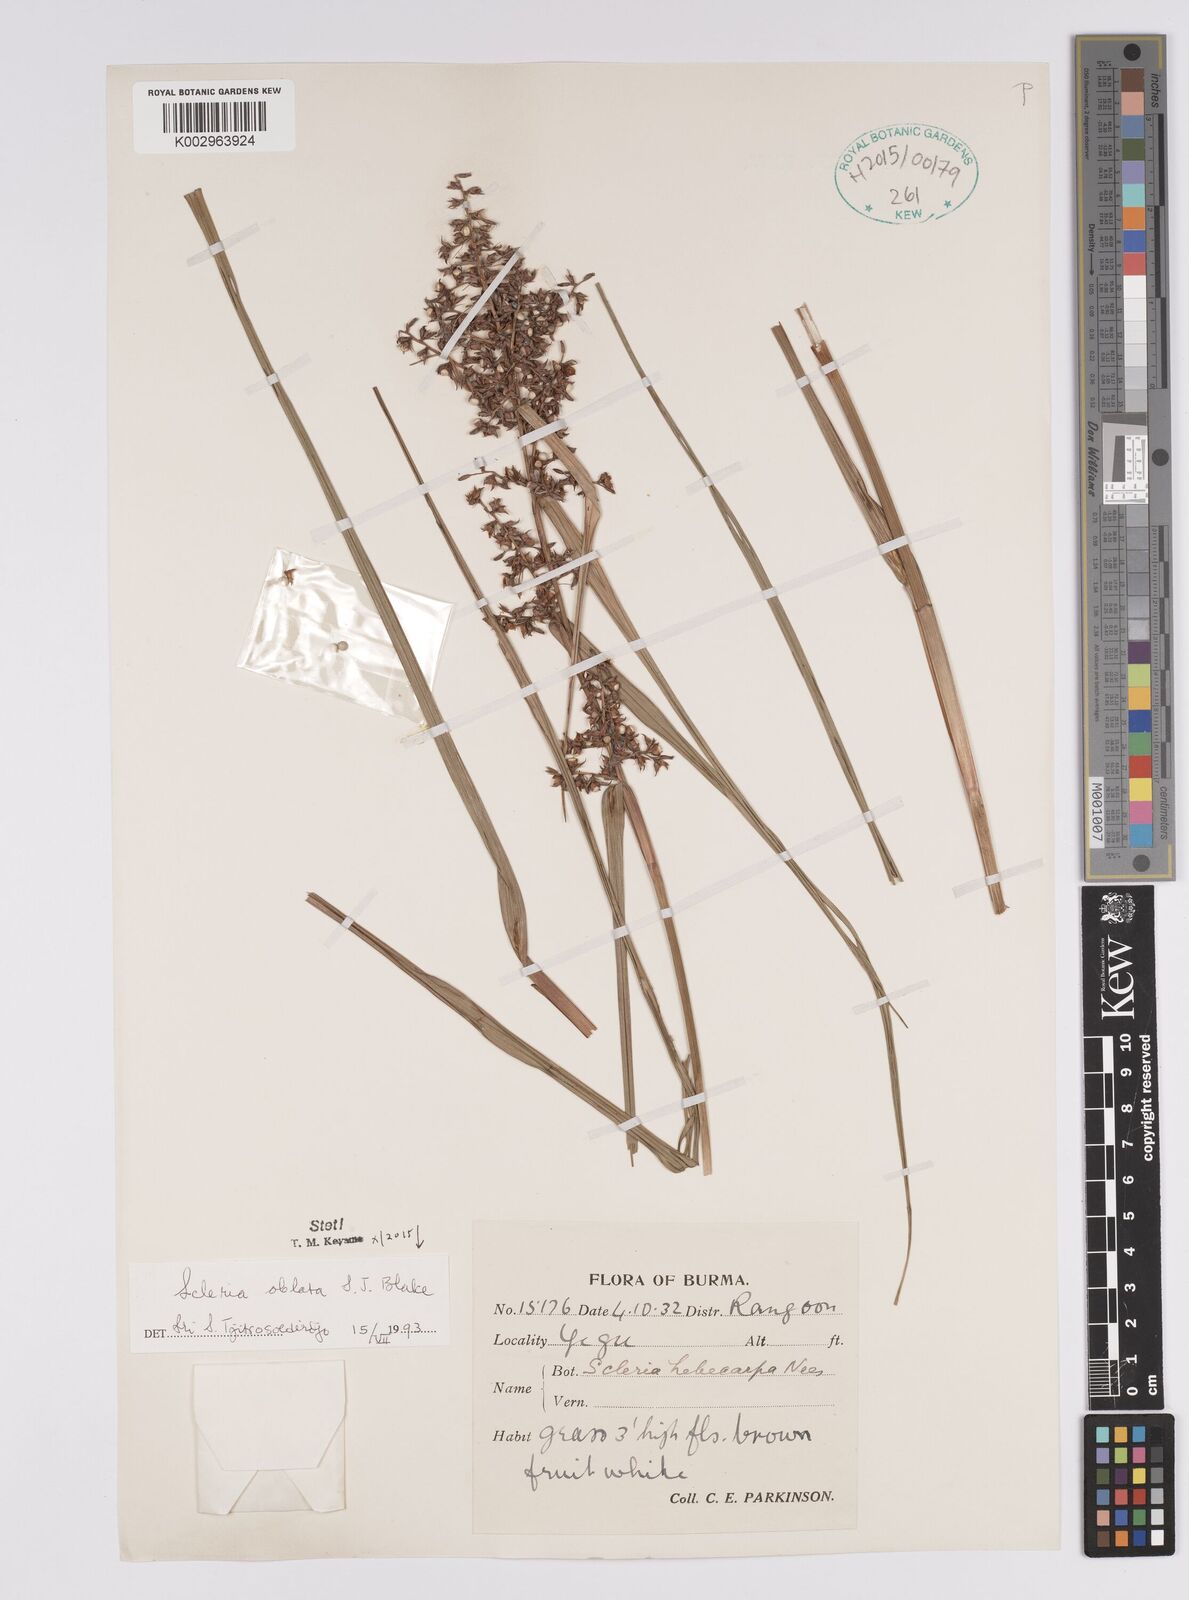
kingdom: Plantae
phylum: Tracheophyta
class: Liliopsida
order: Poales
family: Cyperaceae
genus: Scleria
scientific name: Scleria oblata
